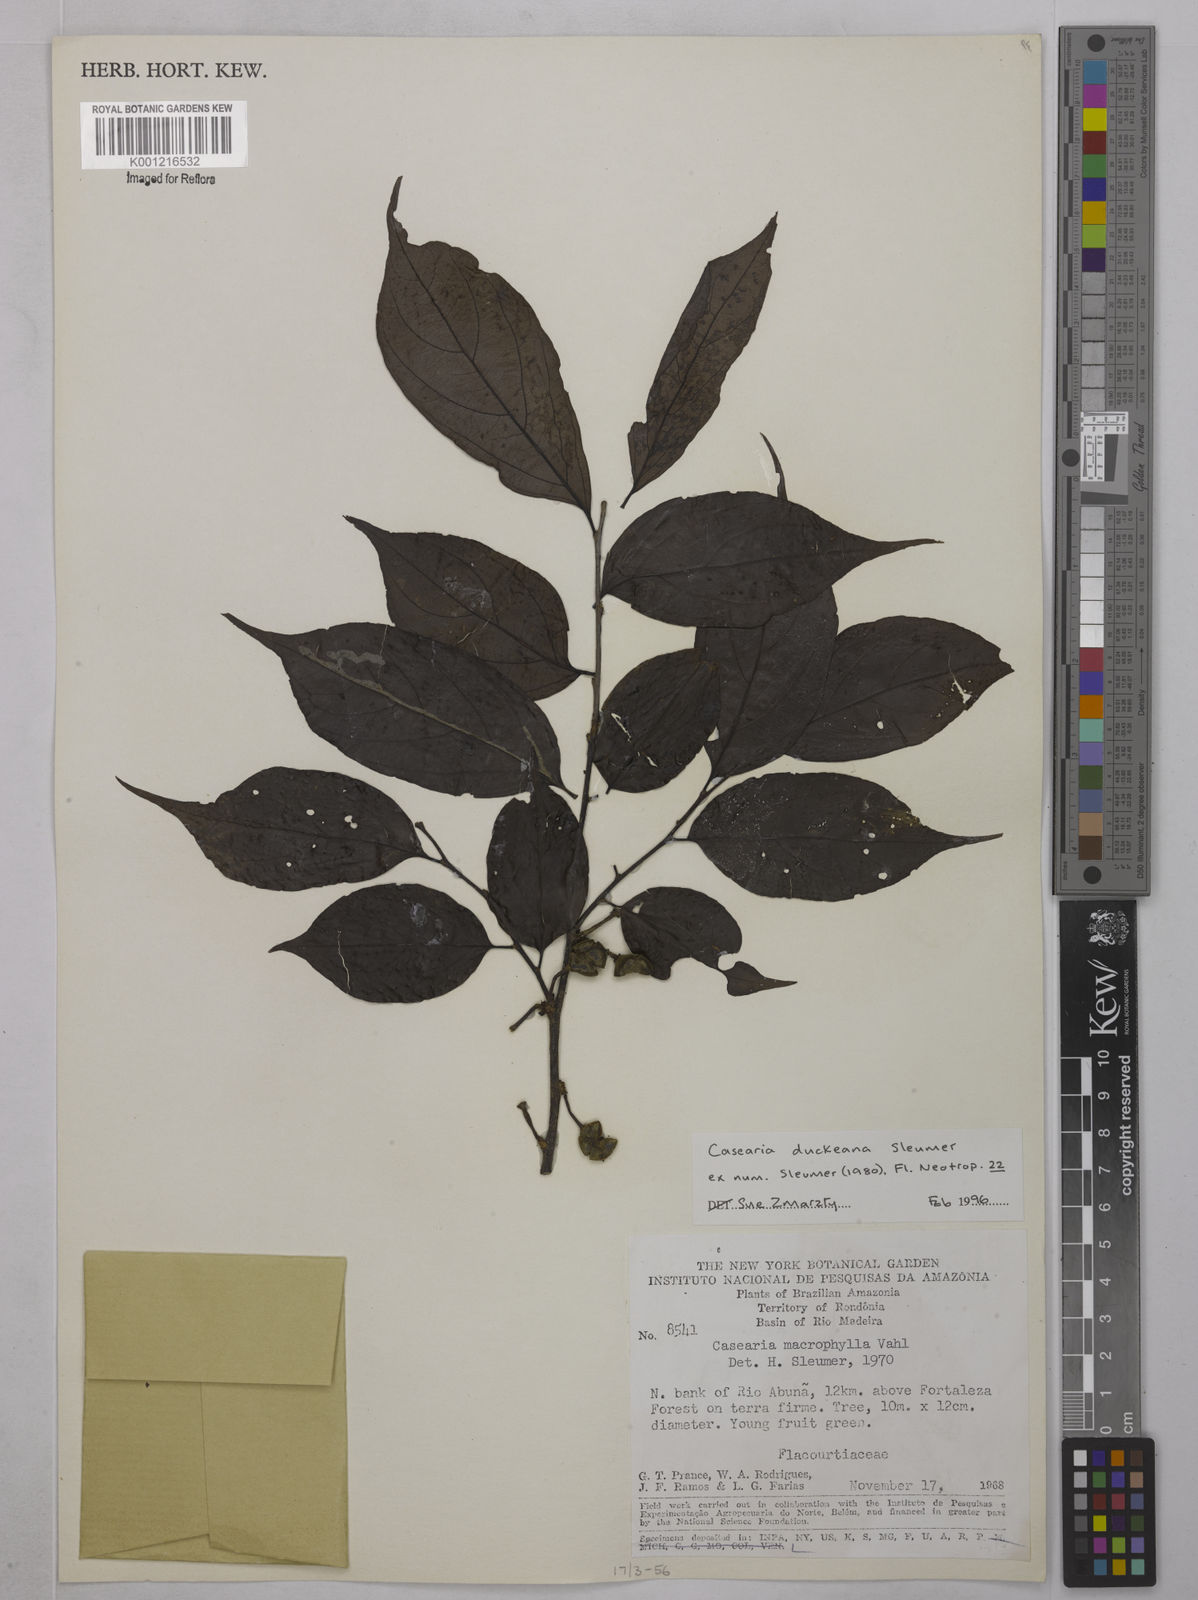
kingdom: Plantae
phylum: Tracheophyta
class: Magnoliopsida
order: Malpighiales
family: Salicaceae
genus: Casearia
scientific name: Casearia duckeana
